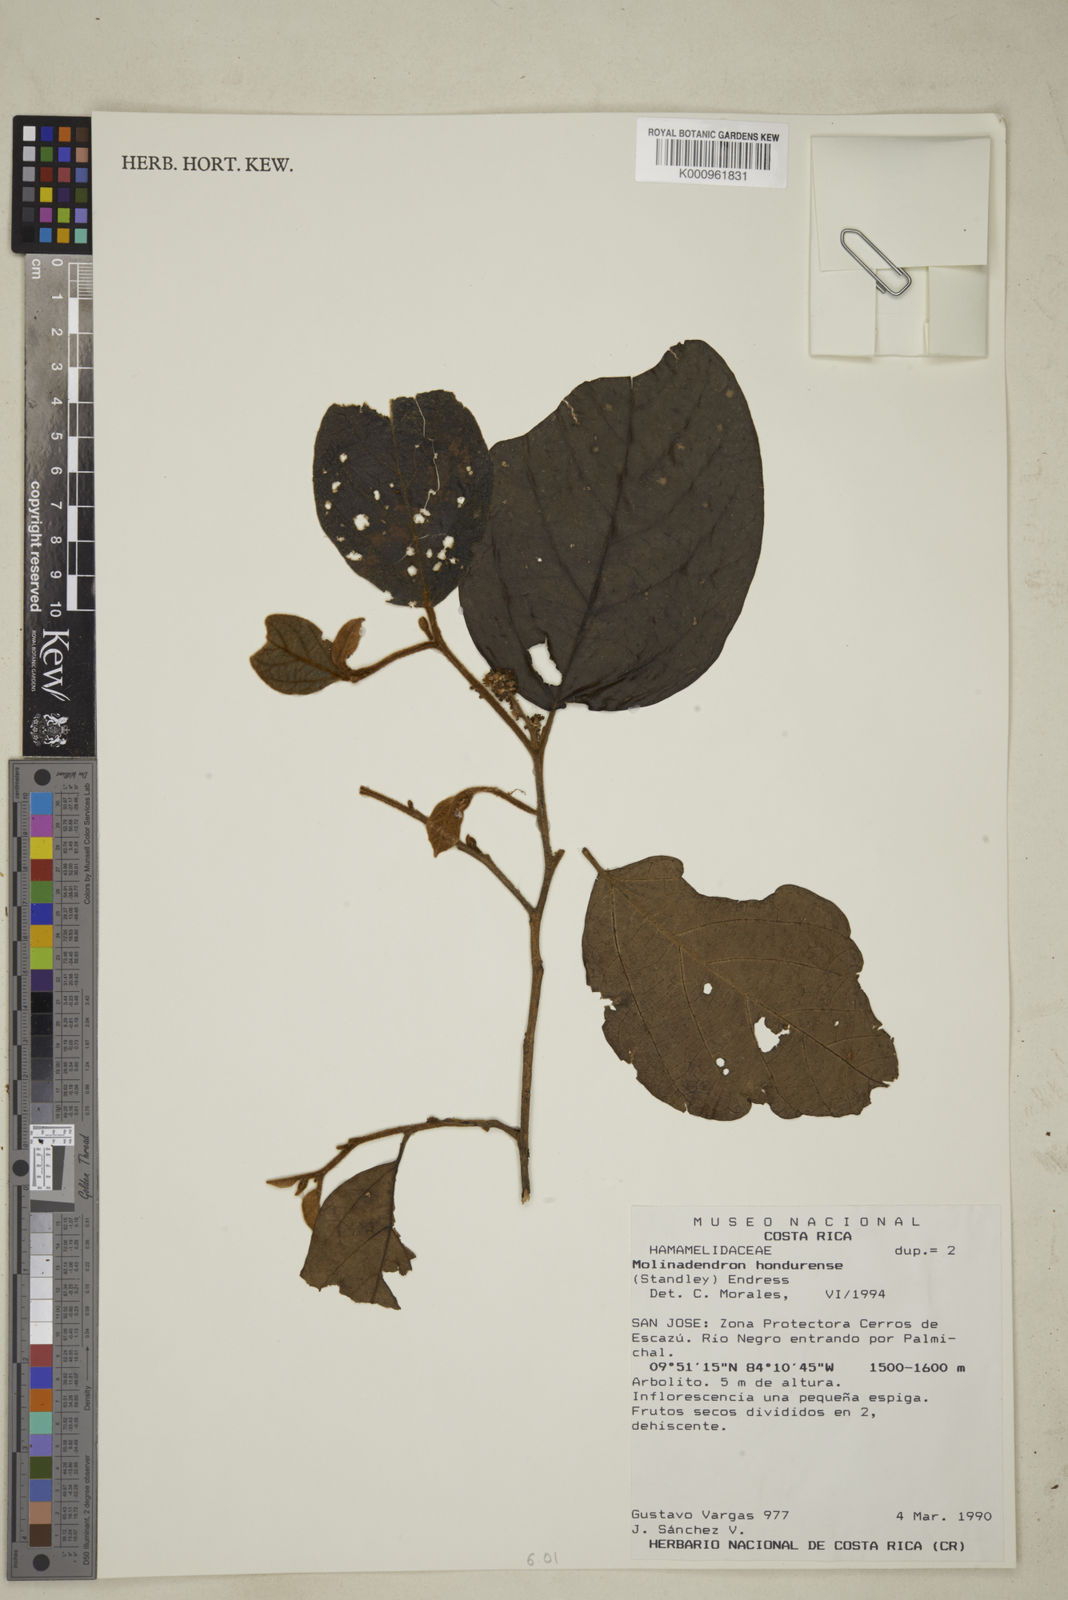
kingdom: Plantae
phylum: Tracheophyta
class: Magnoliopsida
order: Saxifragales
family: Hamamelidaceae
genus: Molinadendron
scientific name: Molinadendron guatemalense
